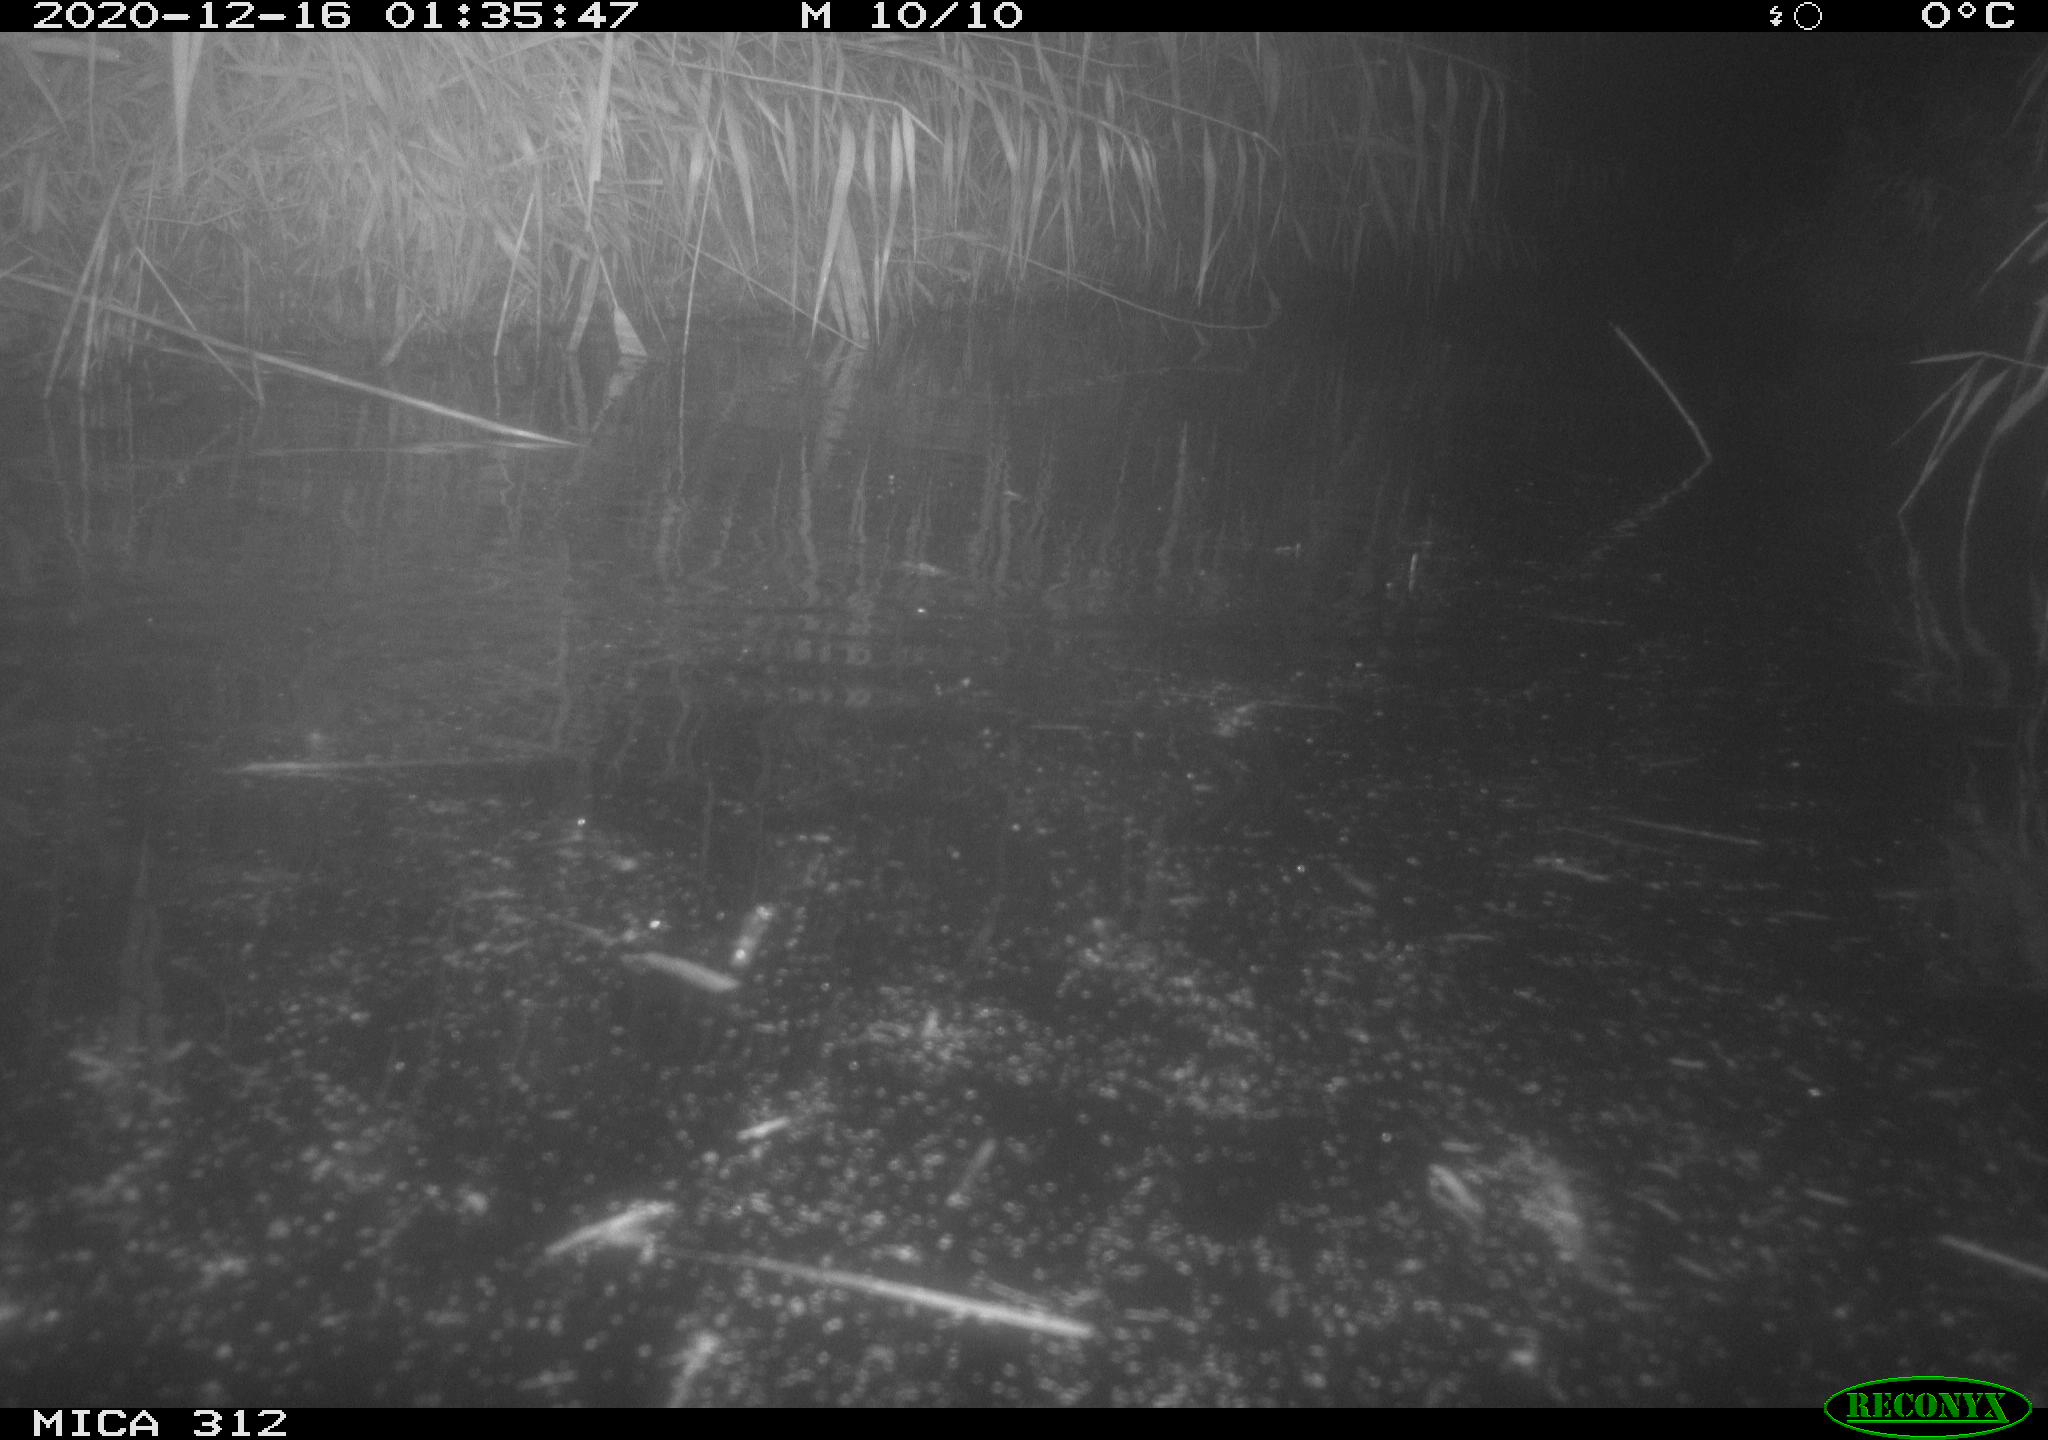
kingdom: Animalia
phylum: Chordata
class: Mammalia
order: Rodentia
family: Muridae
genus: Rattus
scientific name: Rattus norvegicus
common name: Brown rat
